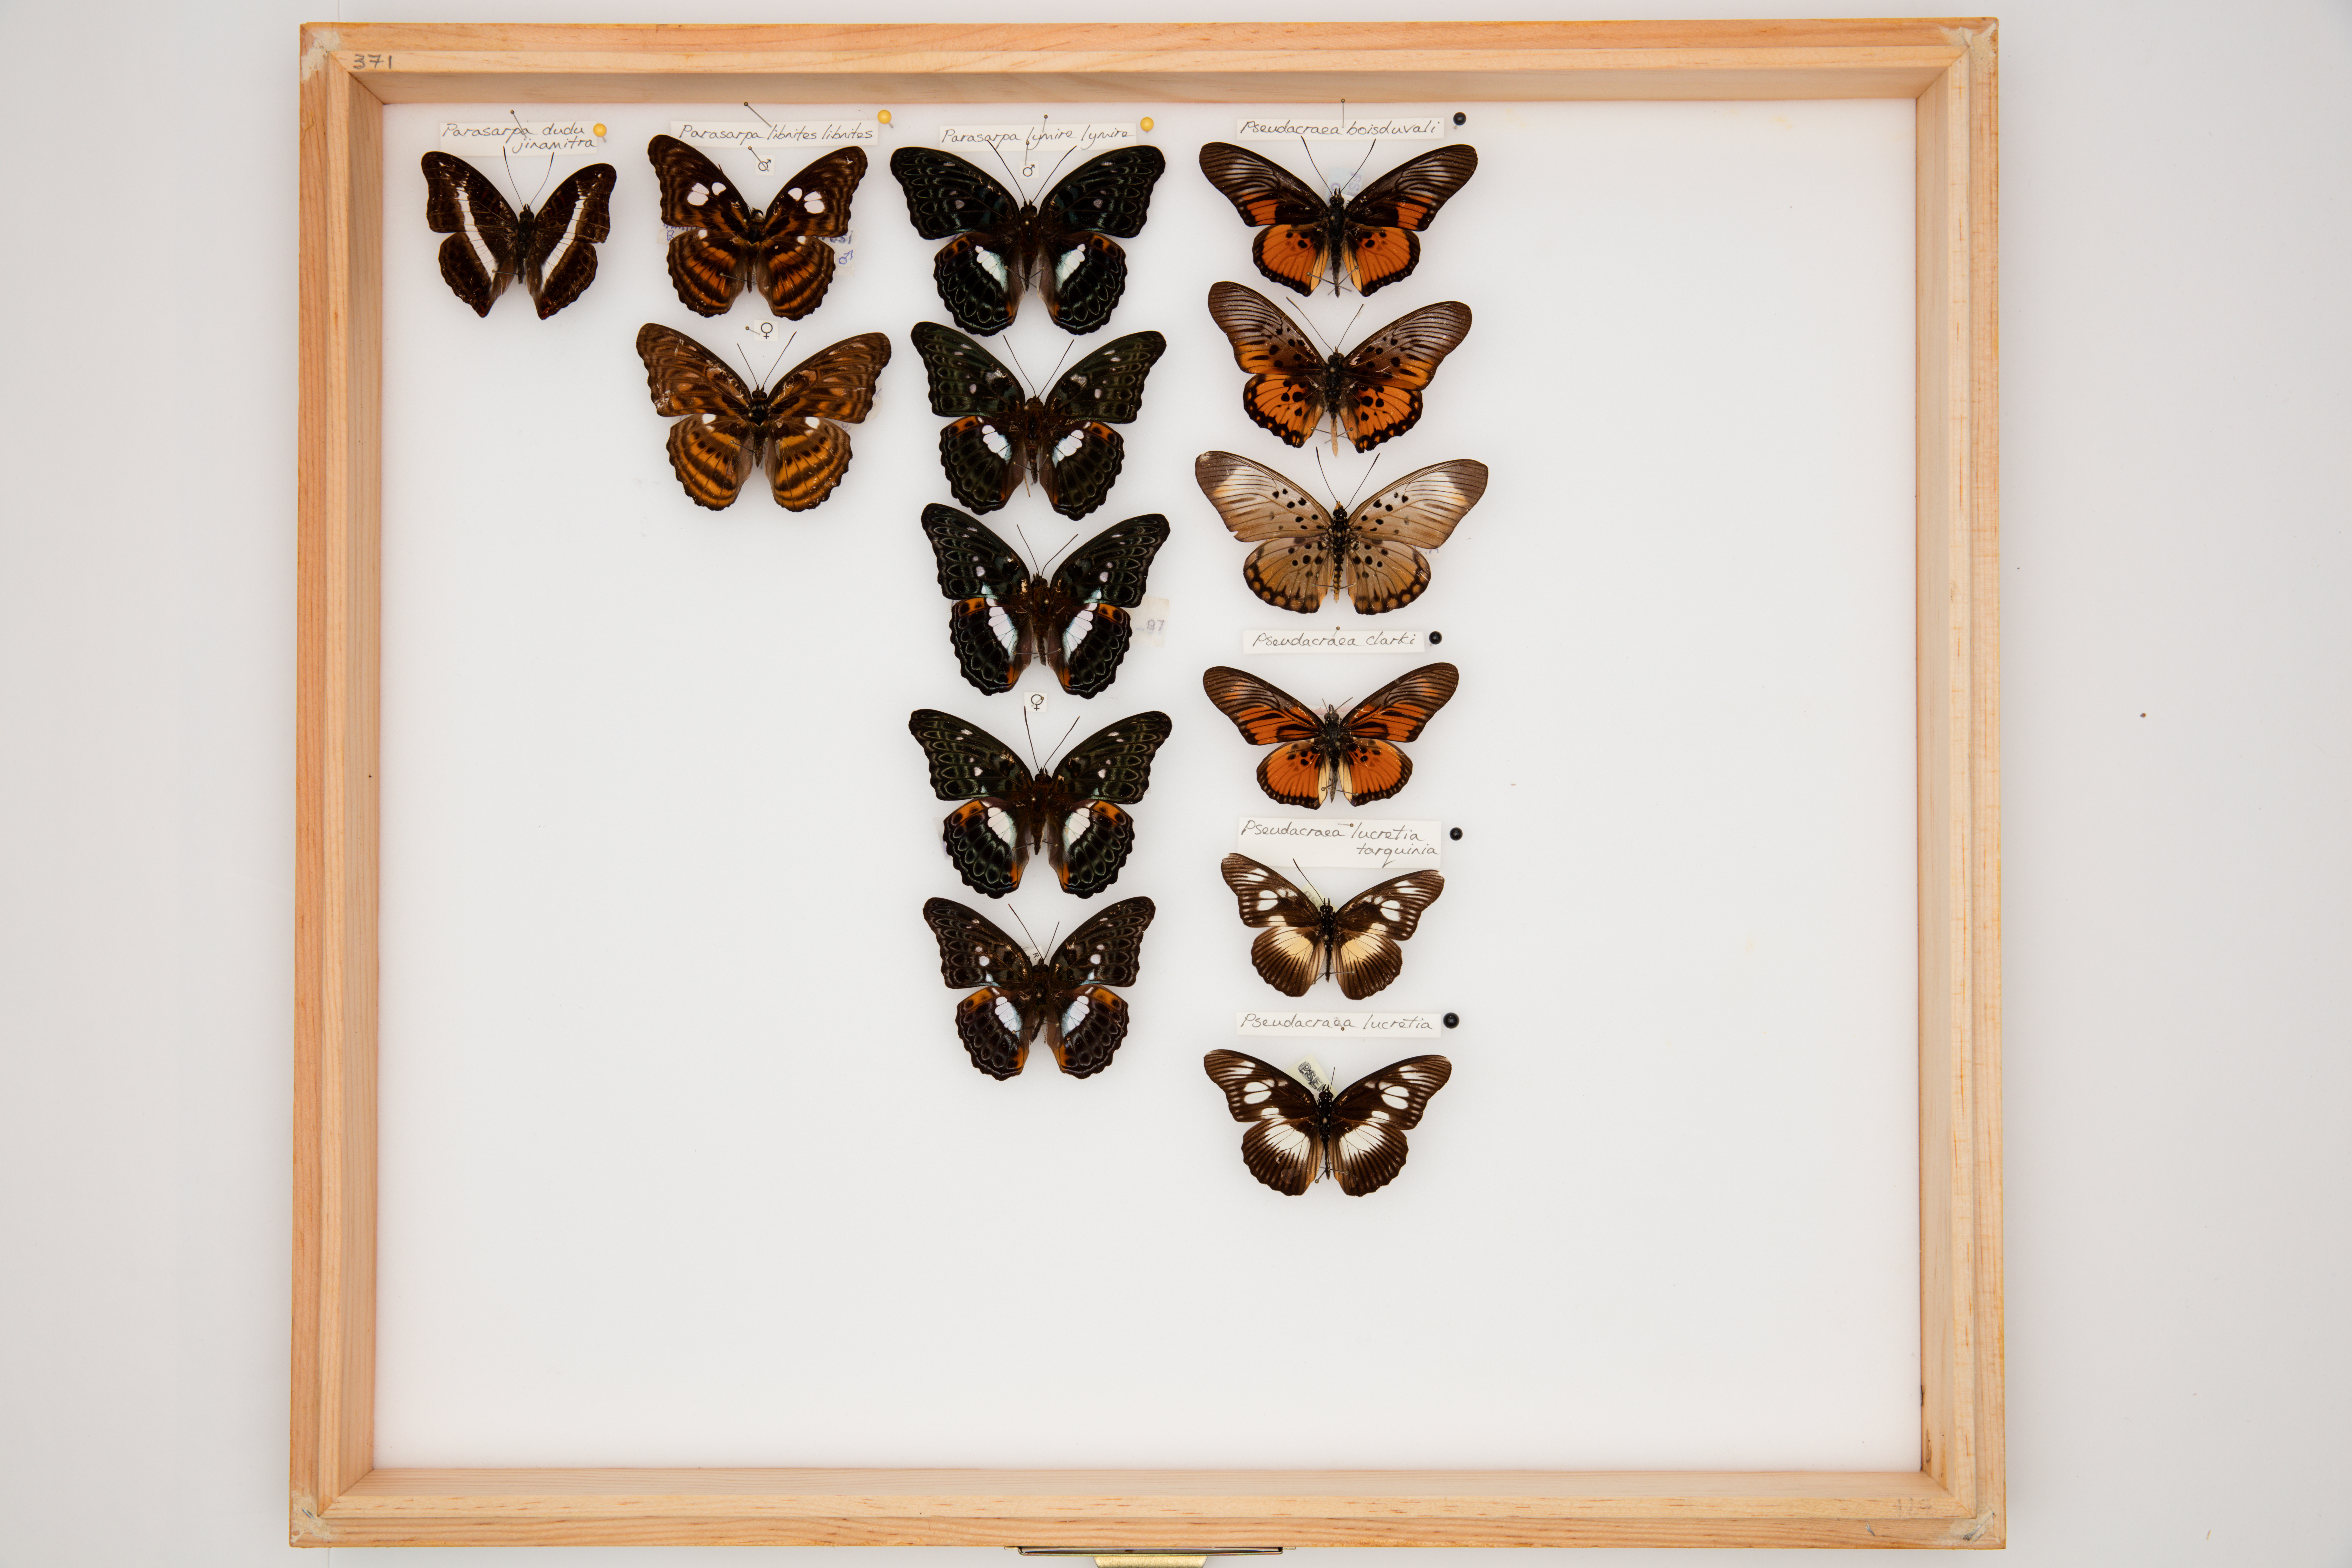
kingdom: Animalia
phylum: Arthropoda
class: Insecta
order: Lepidoptera
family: Nymphalidae
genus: Limenitis
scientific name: Limenitis
